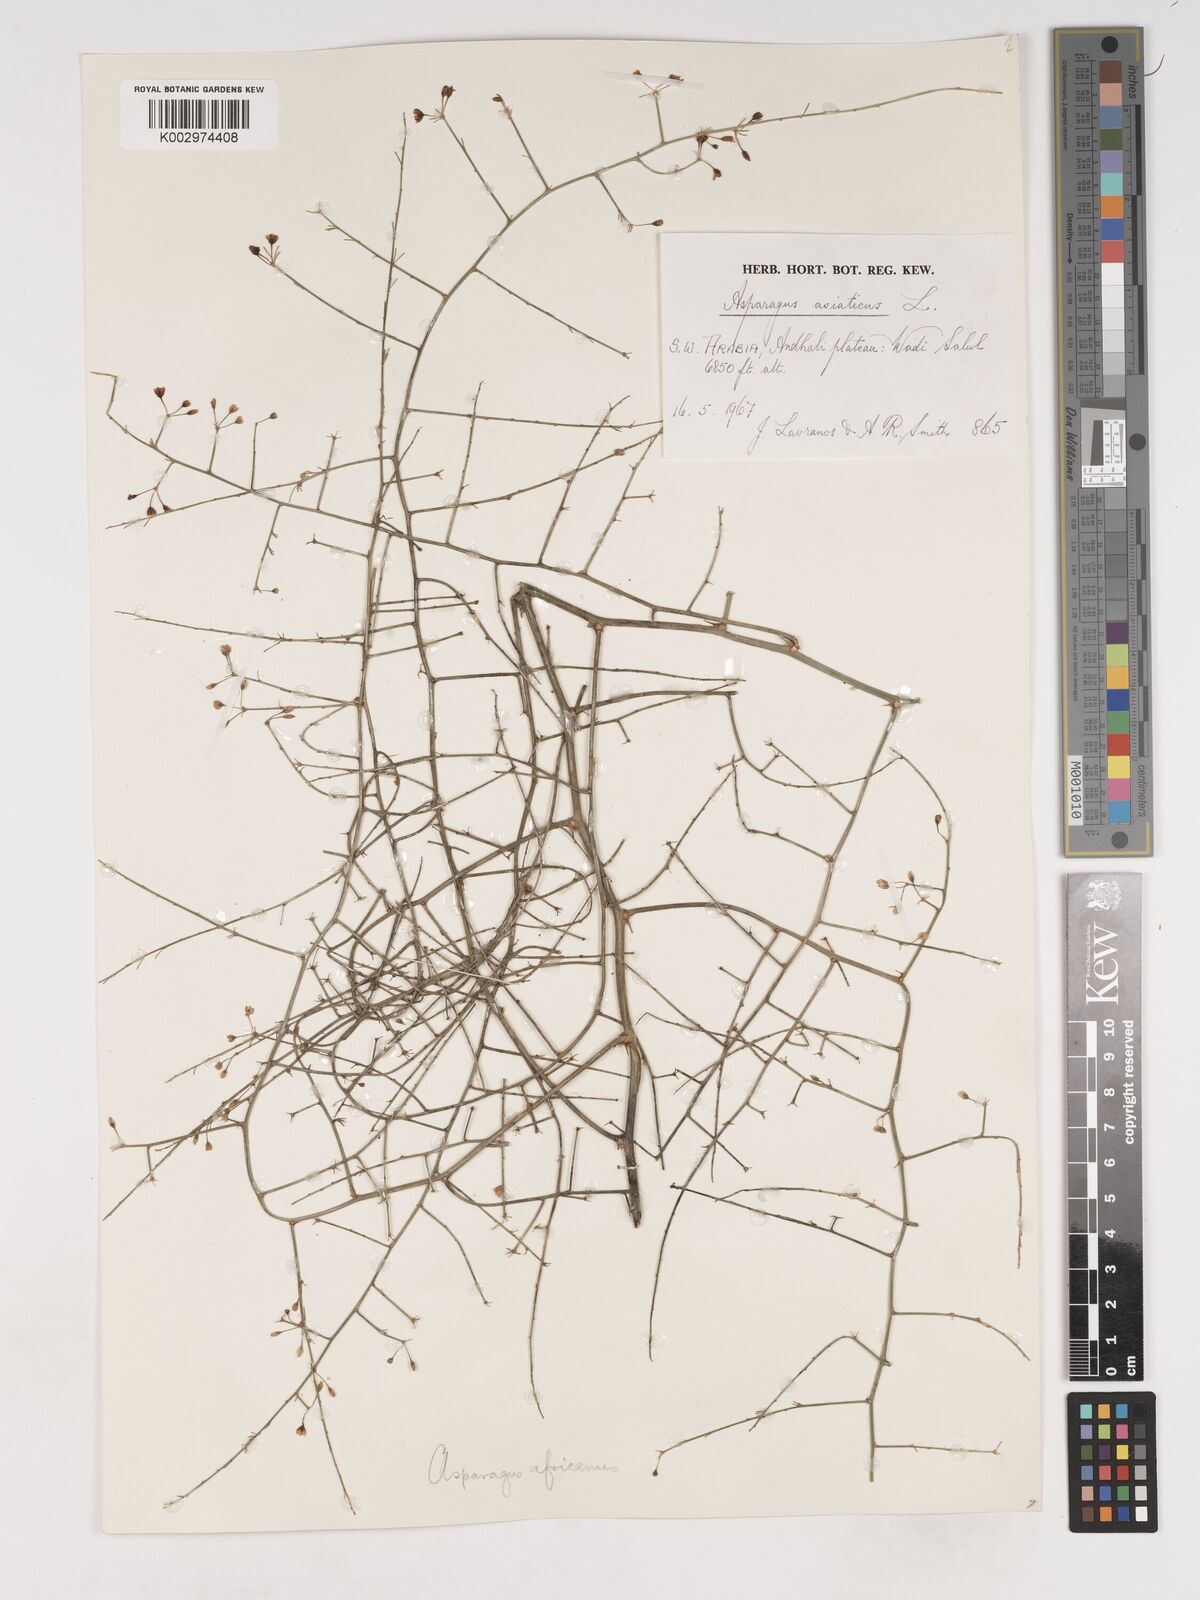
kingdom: Plantae
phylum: Tracheophyta
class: Liliopsida
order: Asparagales
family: Asparagaceae
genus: Asparagus
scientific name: Asparagus asiaticus
